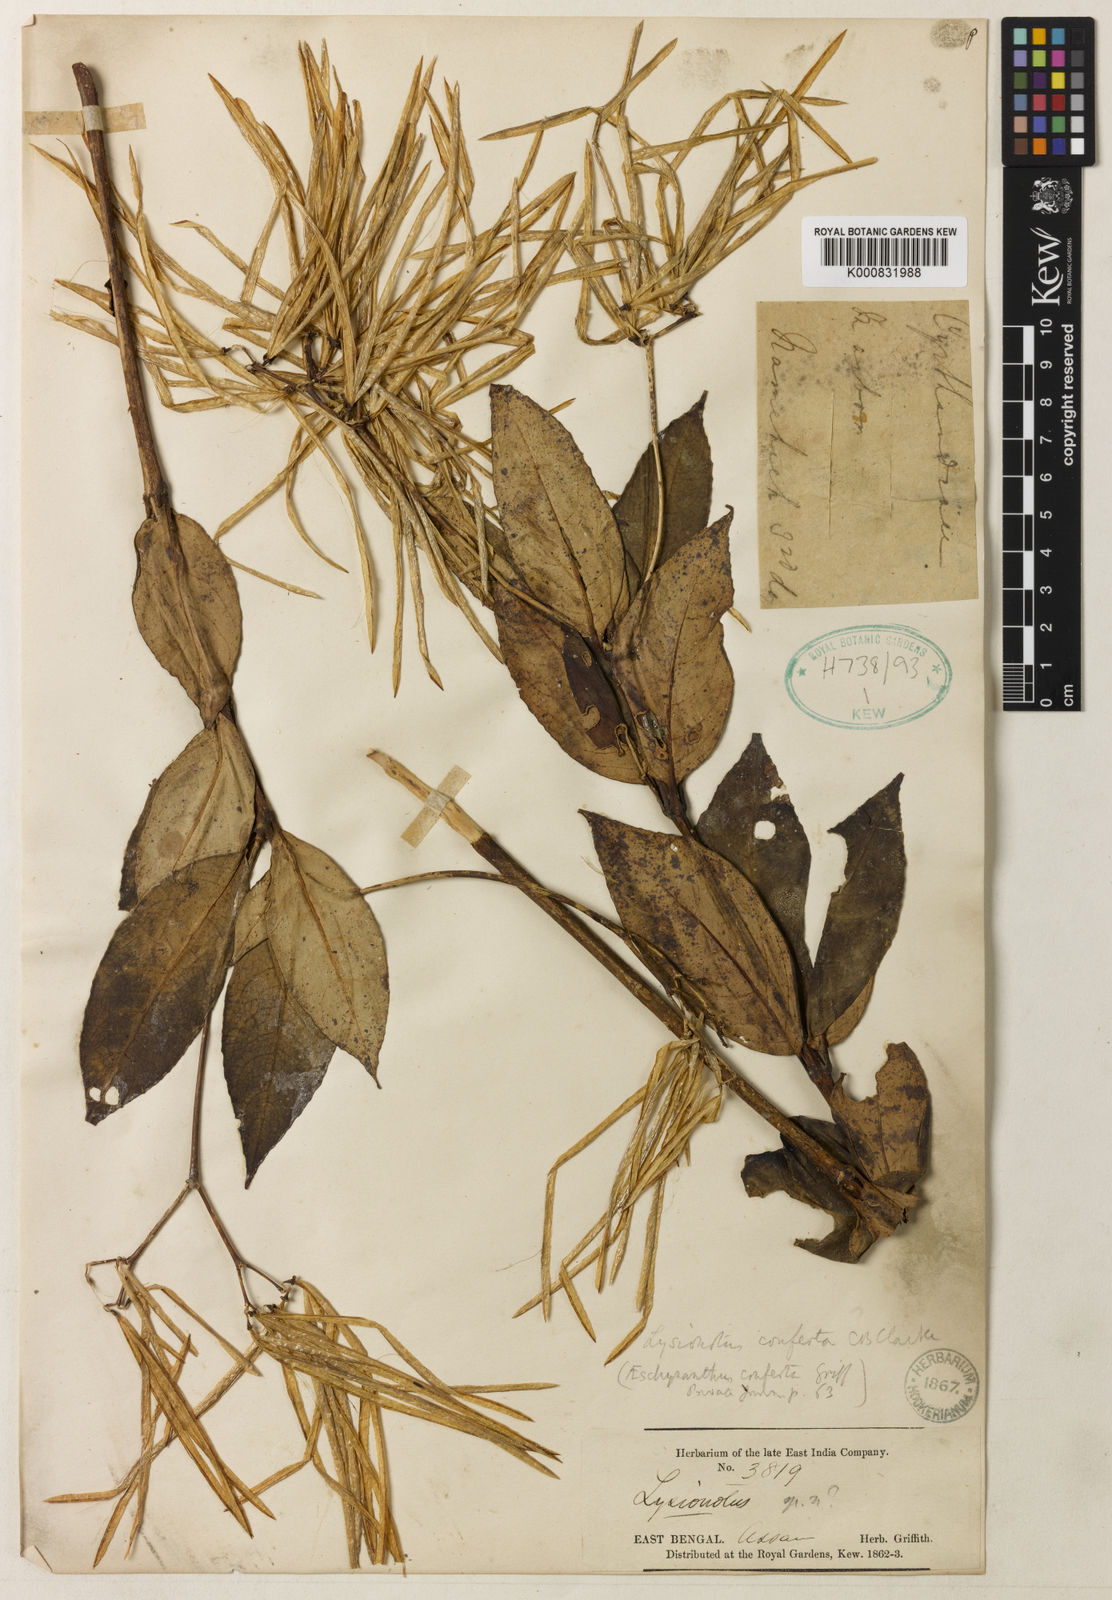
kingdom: Plantae
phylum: Tracheophyta
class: Magnoliopsida
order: Lamiales
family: Gesneriaceae
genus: Lysionotus
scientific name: Lysionotus confertus
